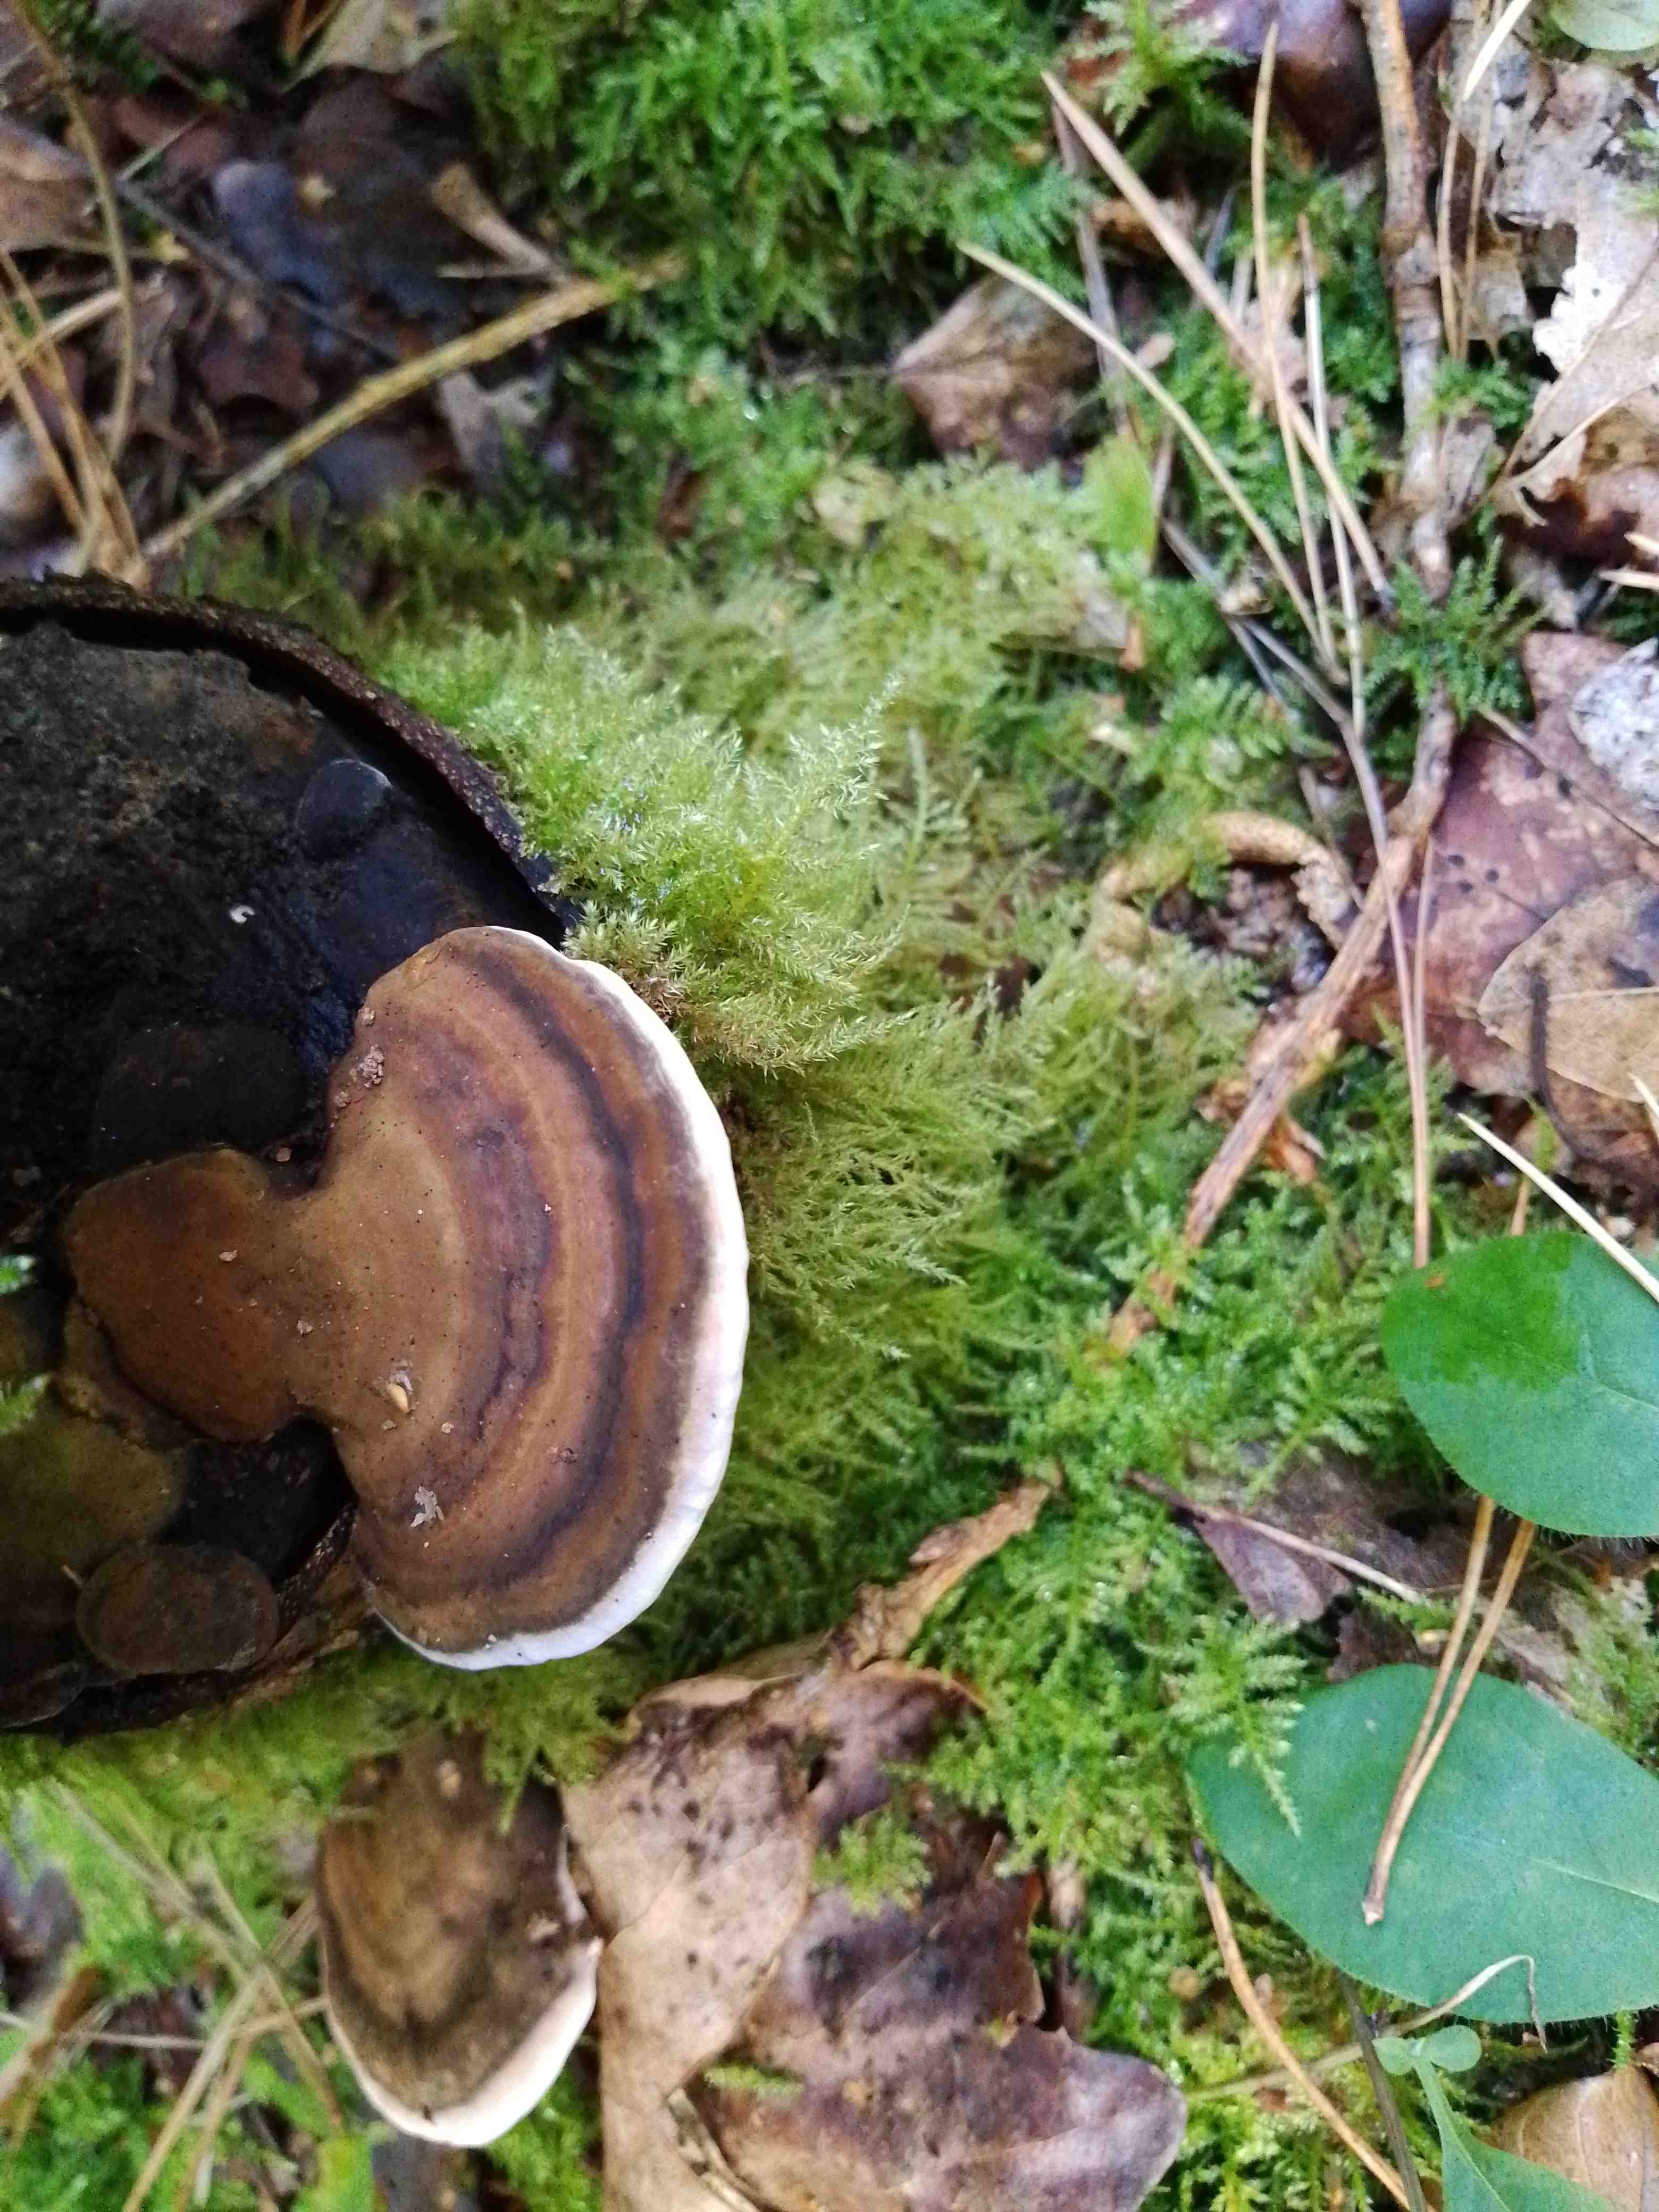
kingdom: Fungi
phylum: Basidiomycota
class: Agaricomycetes
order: Polyporales
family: Polyporaceae
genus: Ganoderma
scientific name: Ganoderma applanatum
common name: flad lakporesvamp
